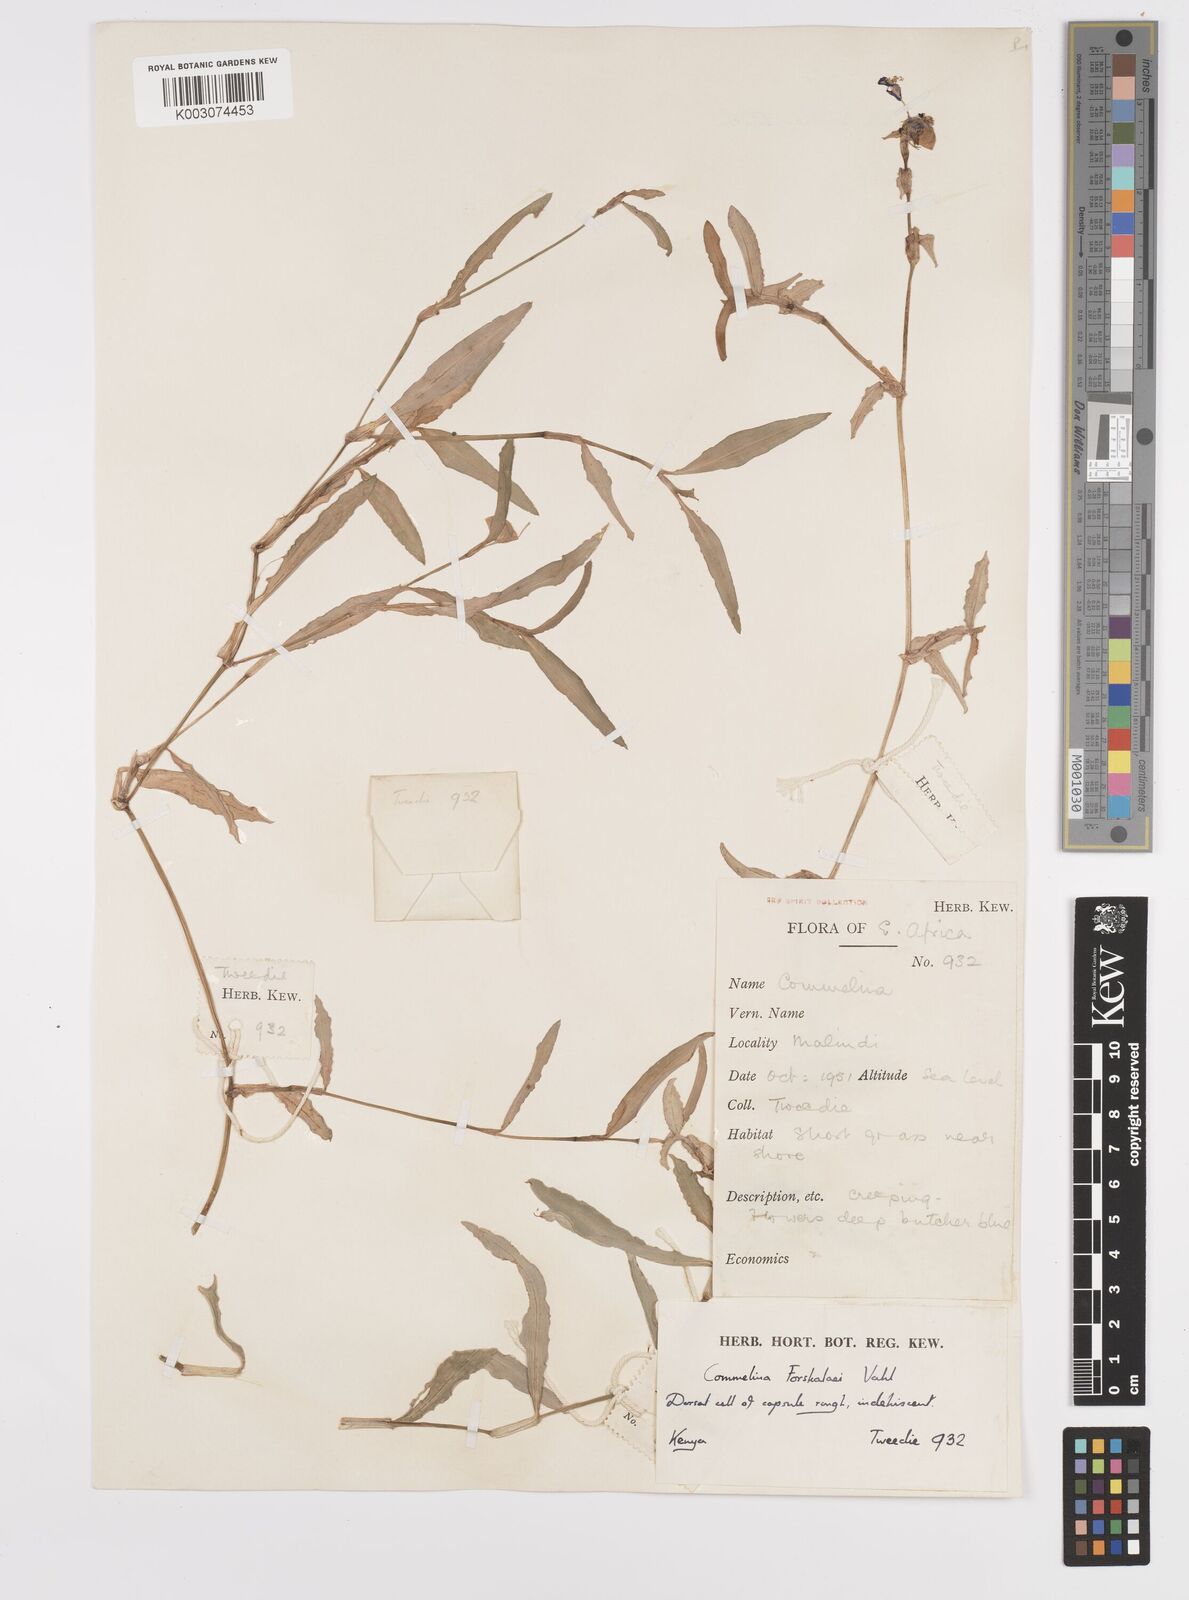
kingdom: Plantae
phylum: Tracheophyta
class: Liliopsida
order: Commelinales
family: Commelinaceae
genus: Commelina
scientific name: Commelina
